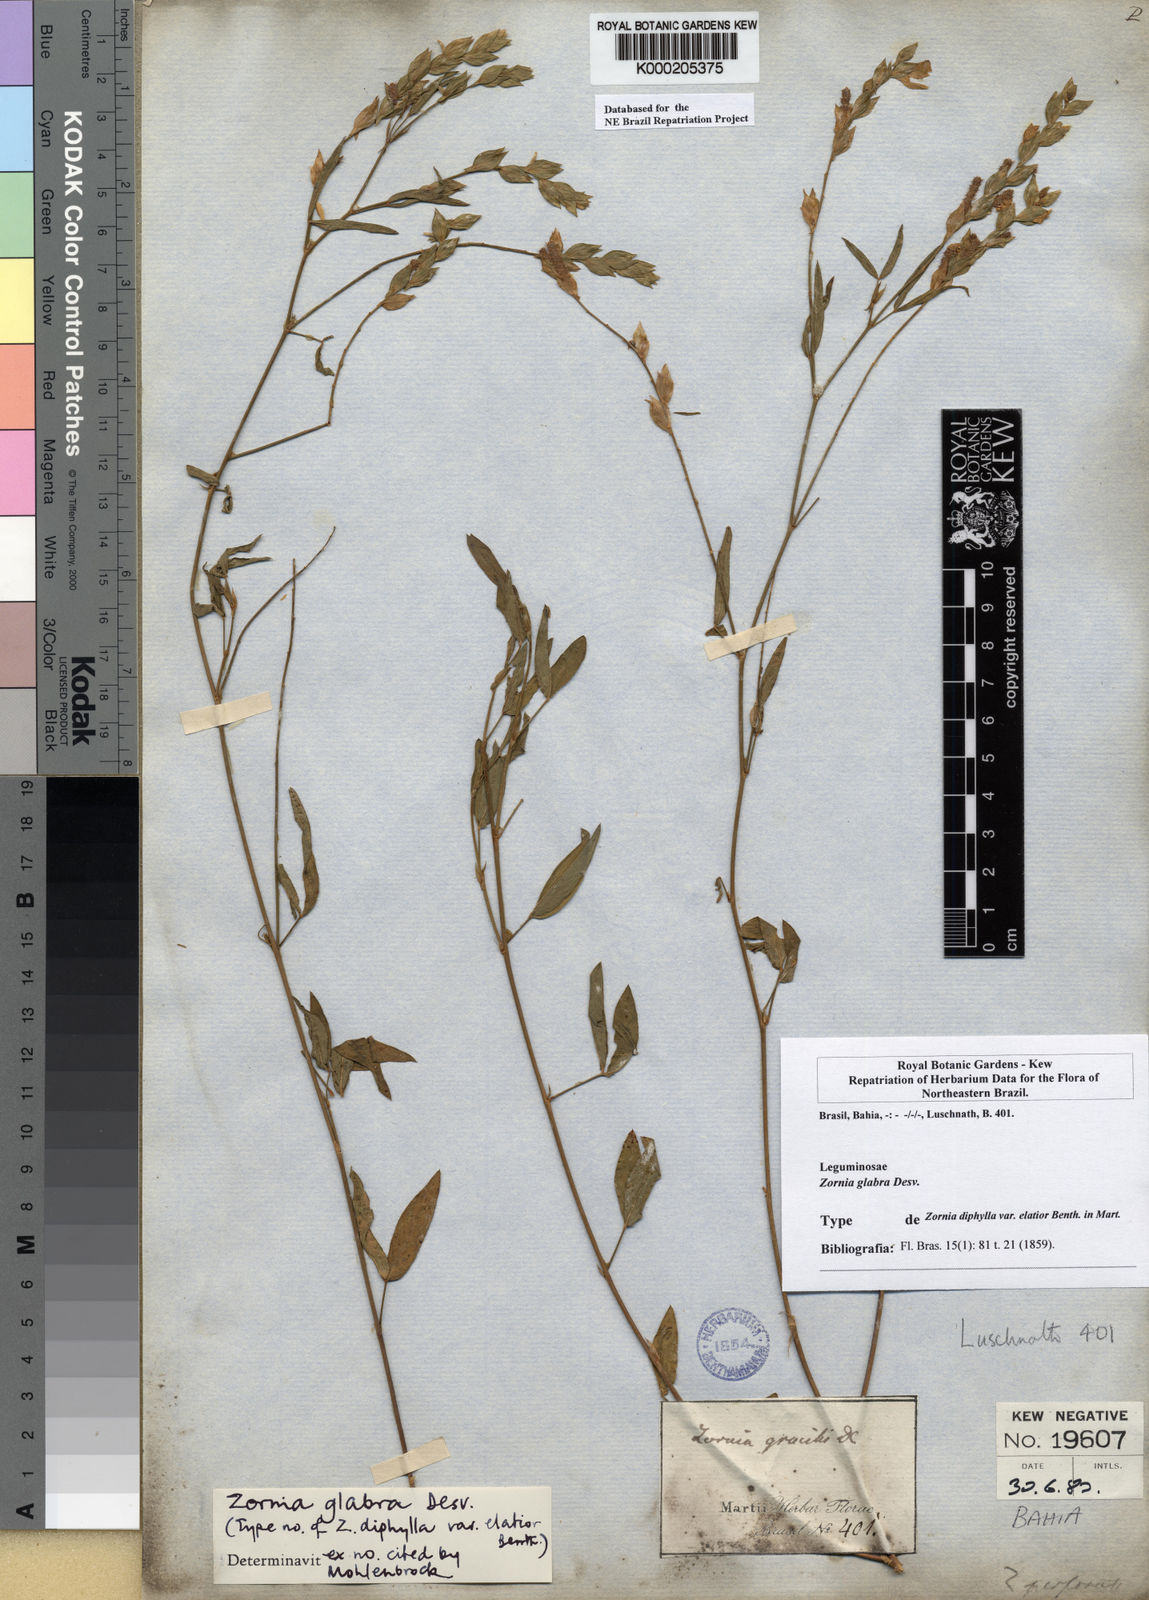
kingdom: Plantae
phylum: Tracheophyta
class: Magnoliopsida
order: Fabales
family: Fabaceae
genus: Zornia
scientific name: Zornia glabra
